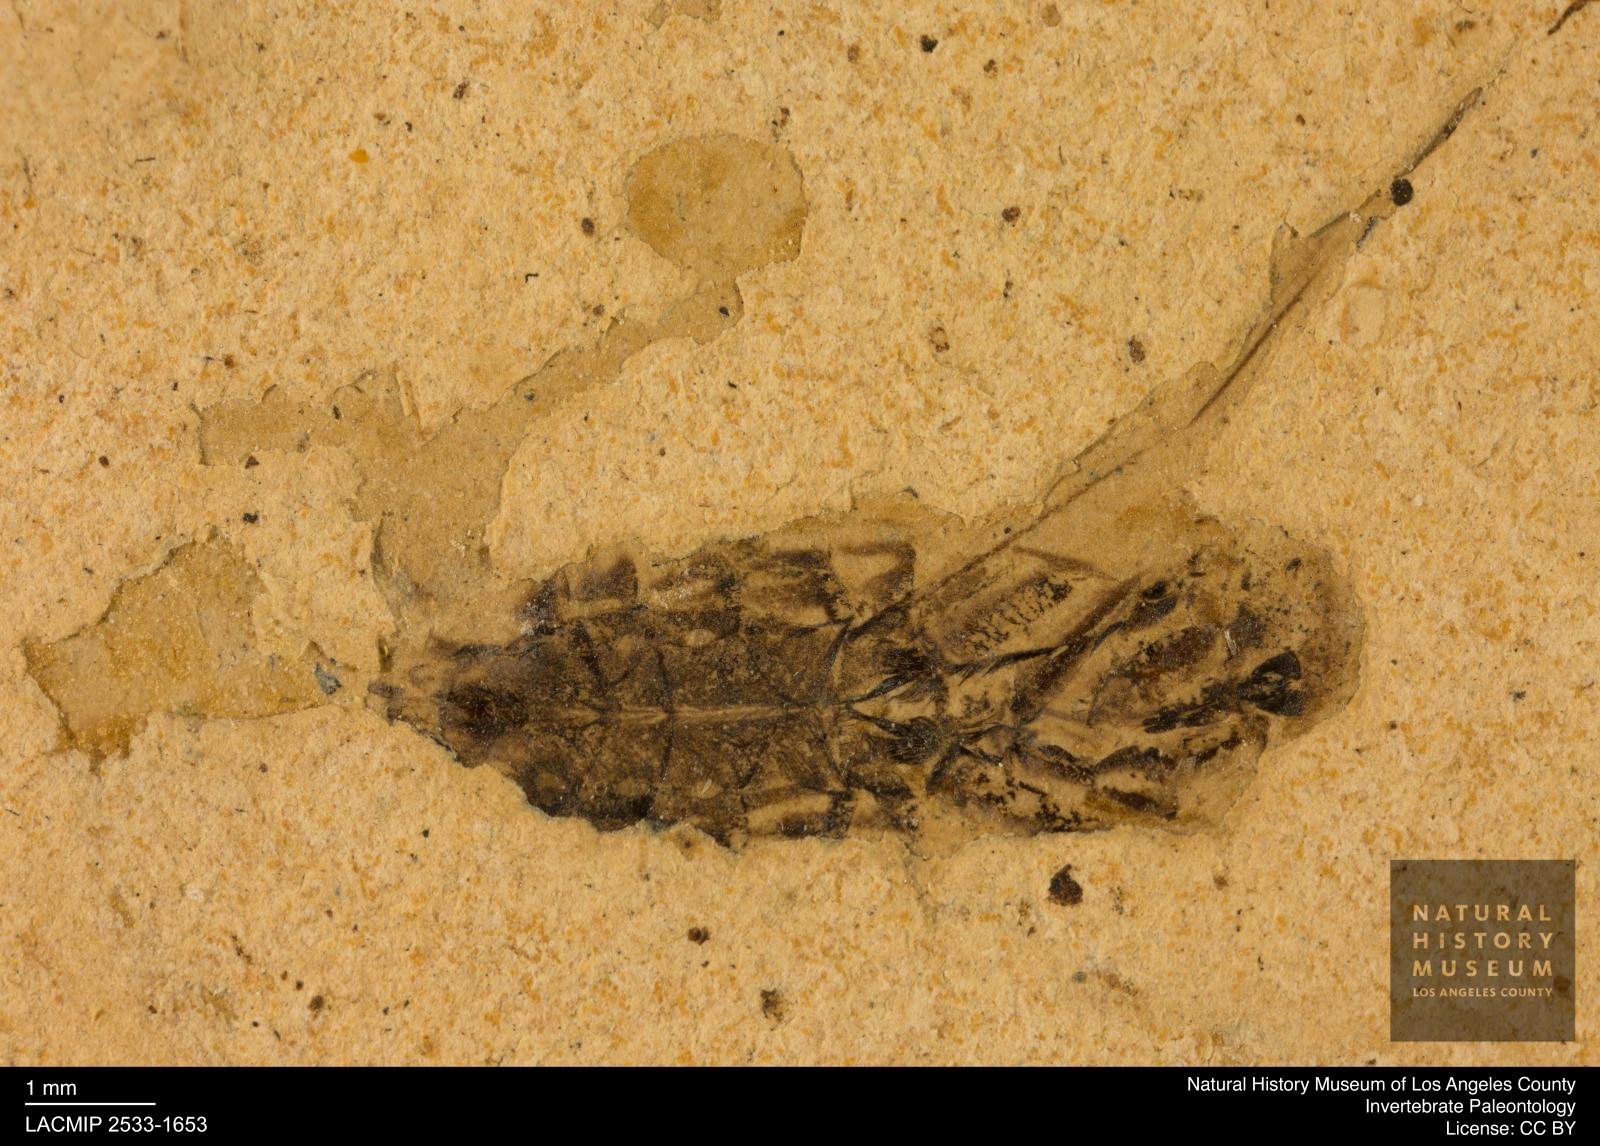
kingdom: Animalia
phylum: Arthropoda
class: Insecta
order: Hemiptera
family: Notonectidae
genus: Notonecta
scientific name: Notonecta
